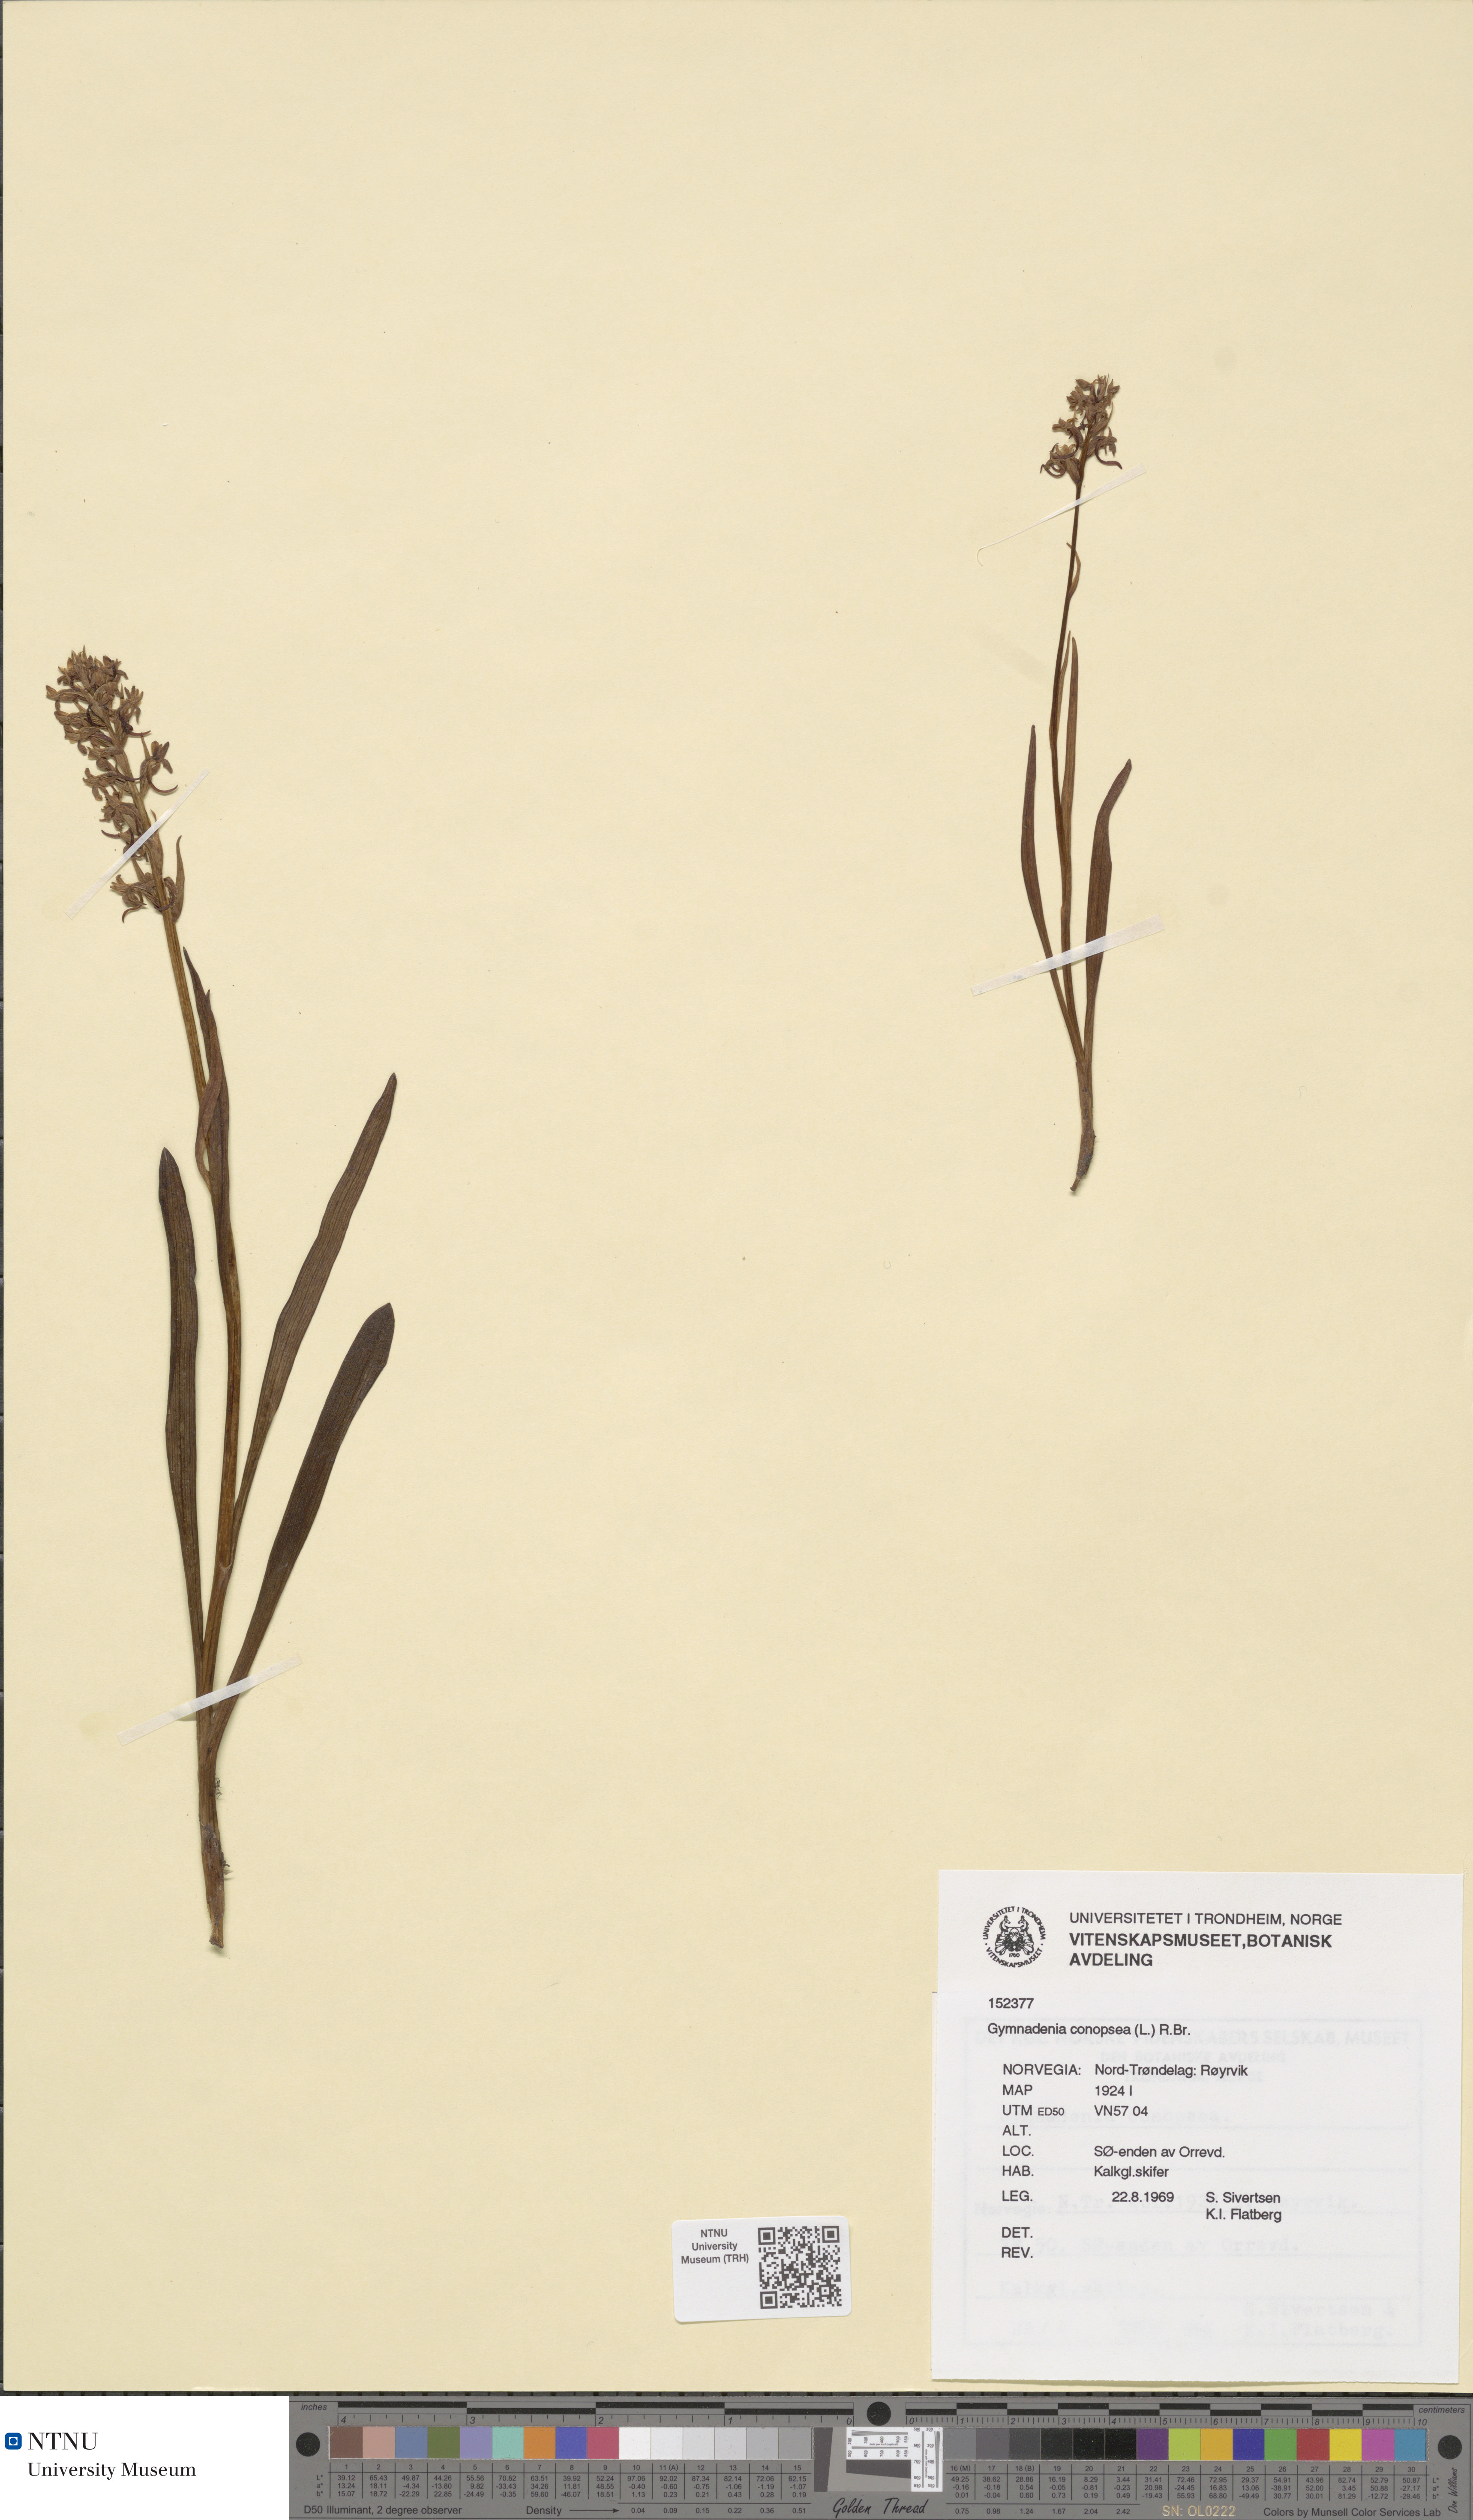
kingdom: Plantae
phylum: Tracheophyta
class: Liliopsida
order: Asparagales
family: Orchidaceae
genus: Gymnadenia
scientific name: Gymnadenia conopsea
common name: Fragrant orchid
